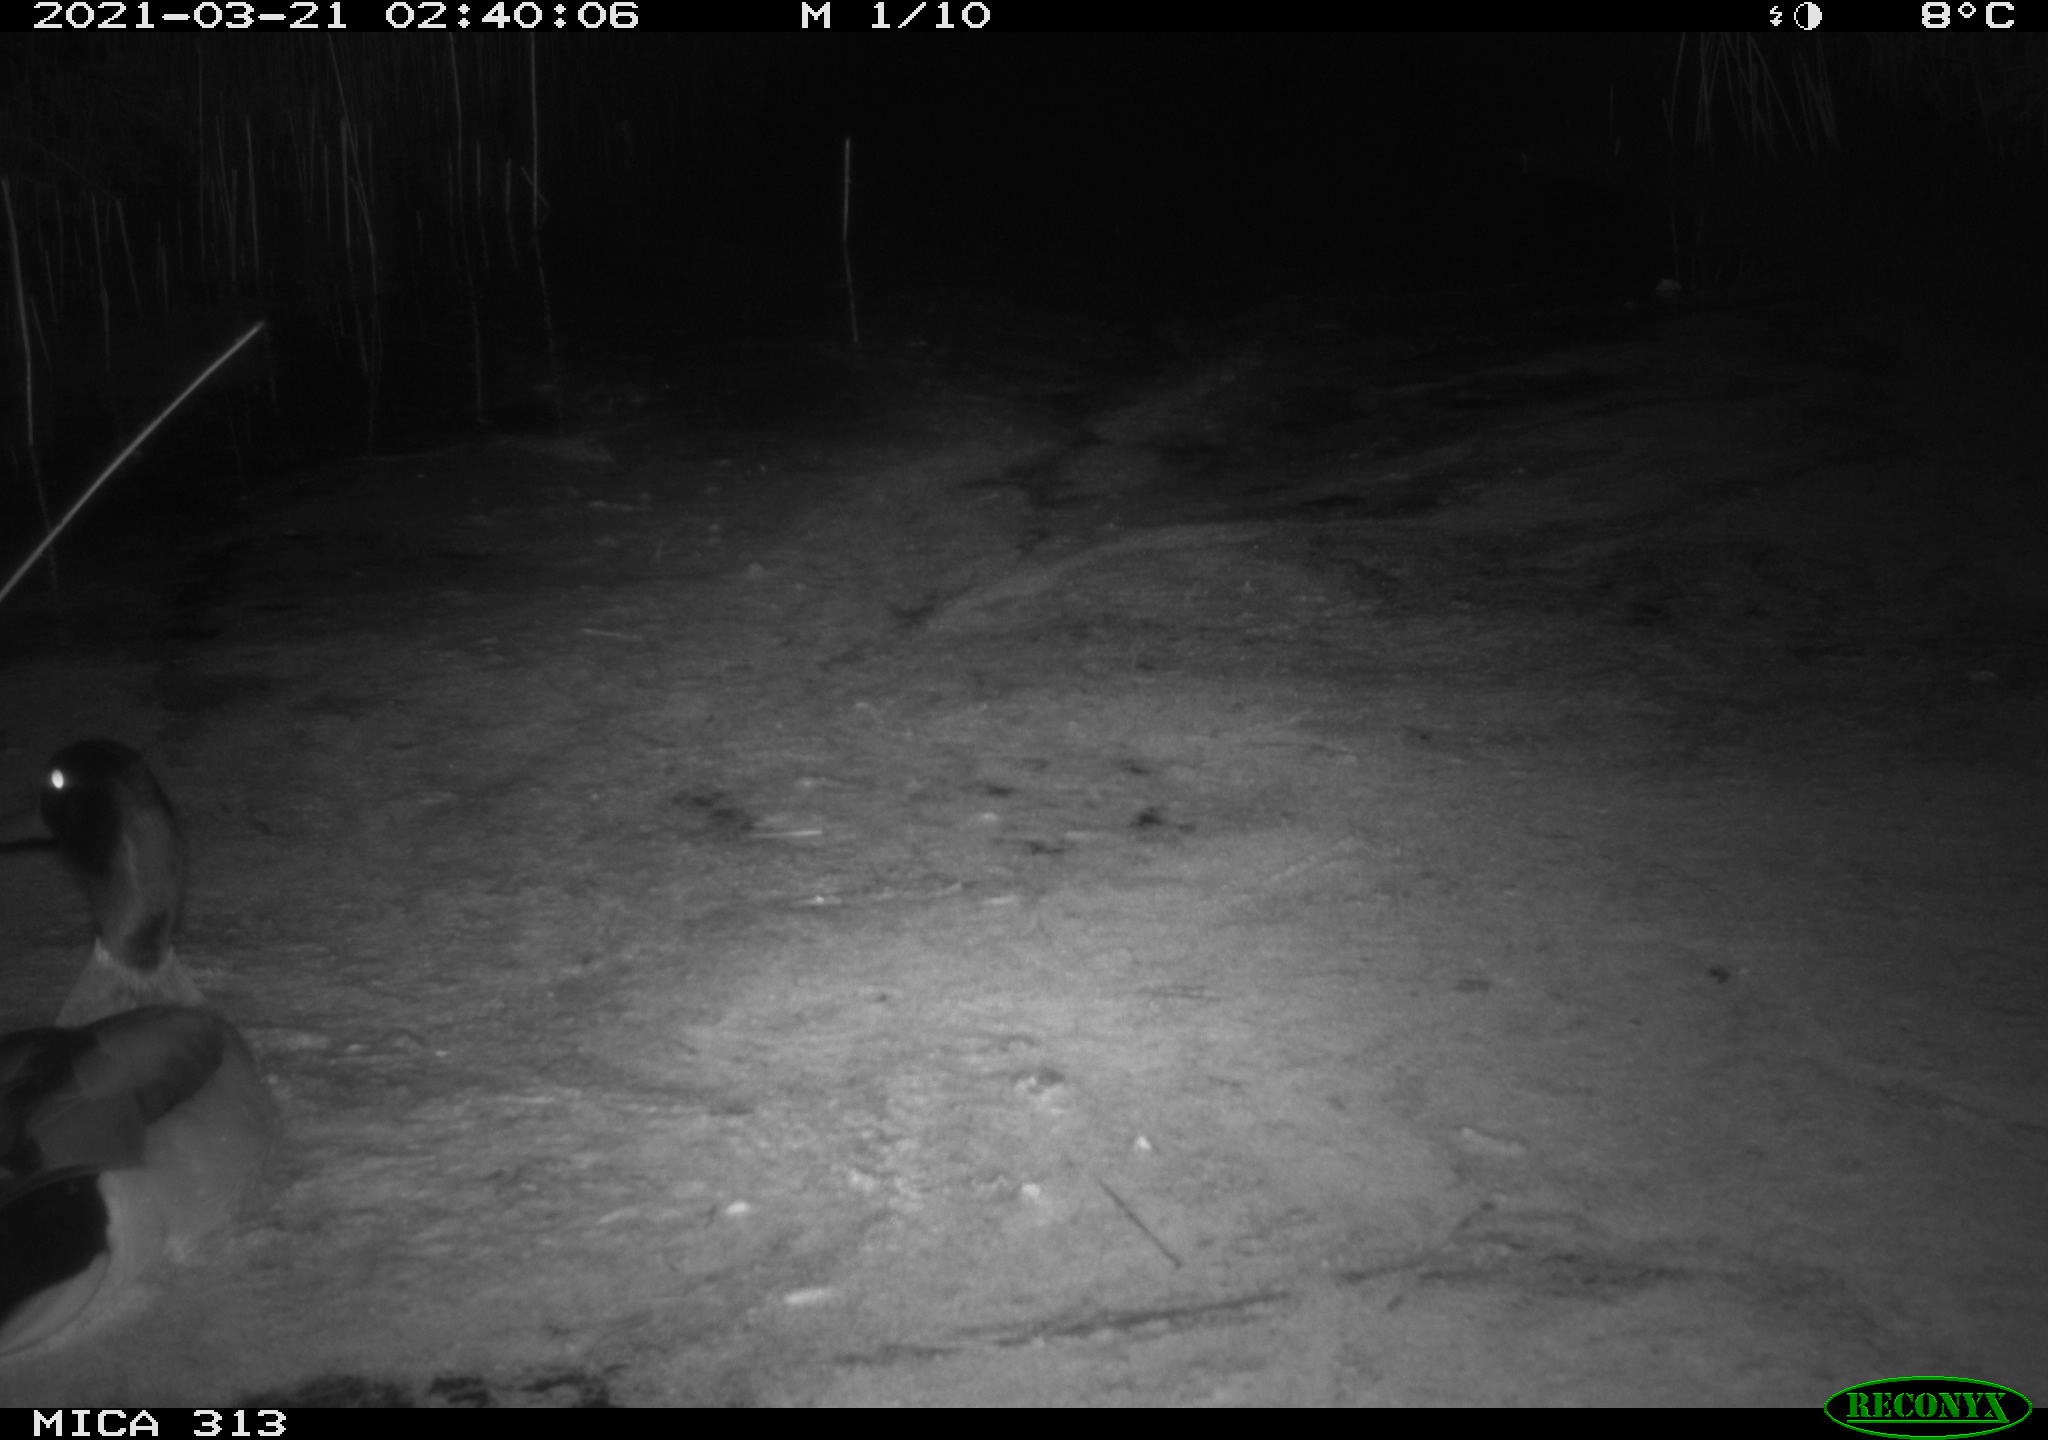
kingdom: Animalia
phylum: Chordata
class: Aves
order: Anseriformes
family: Anatidae
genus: Anas
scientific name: Anas platyrhynchos
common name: Mallard
